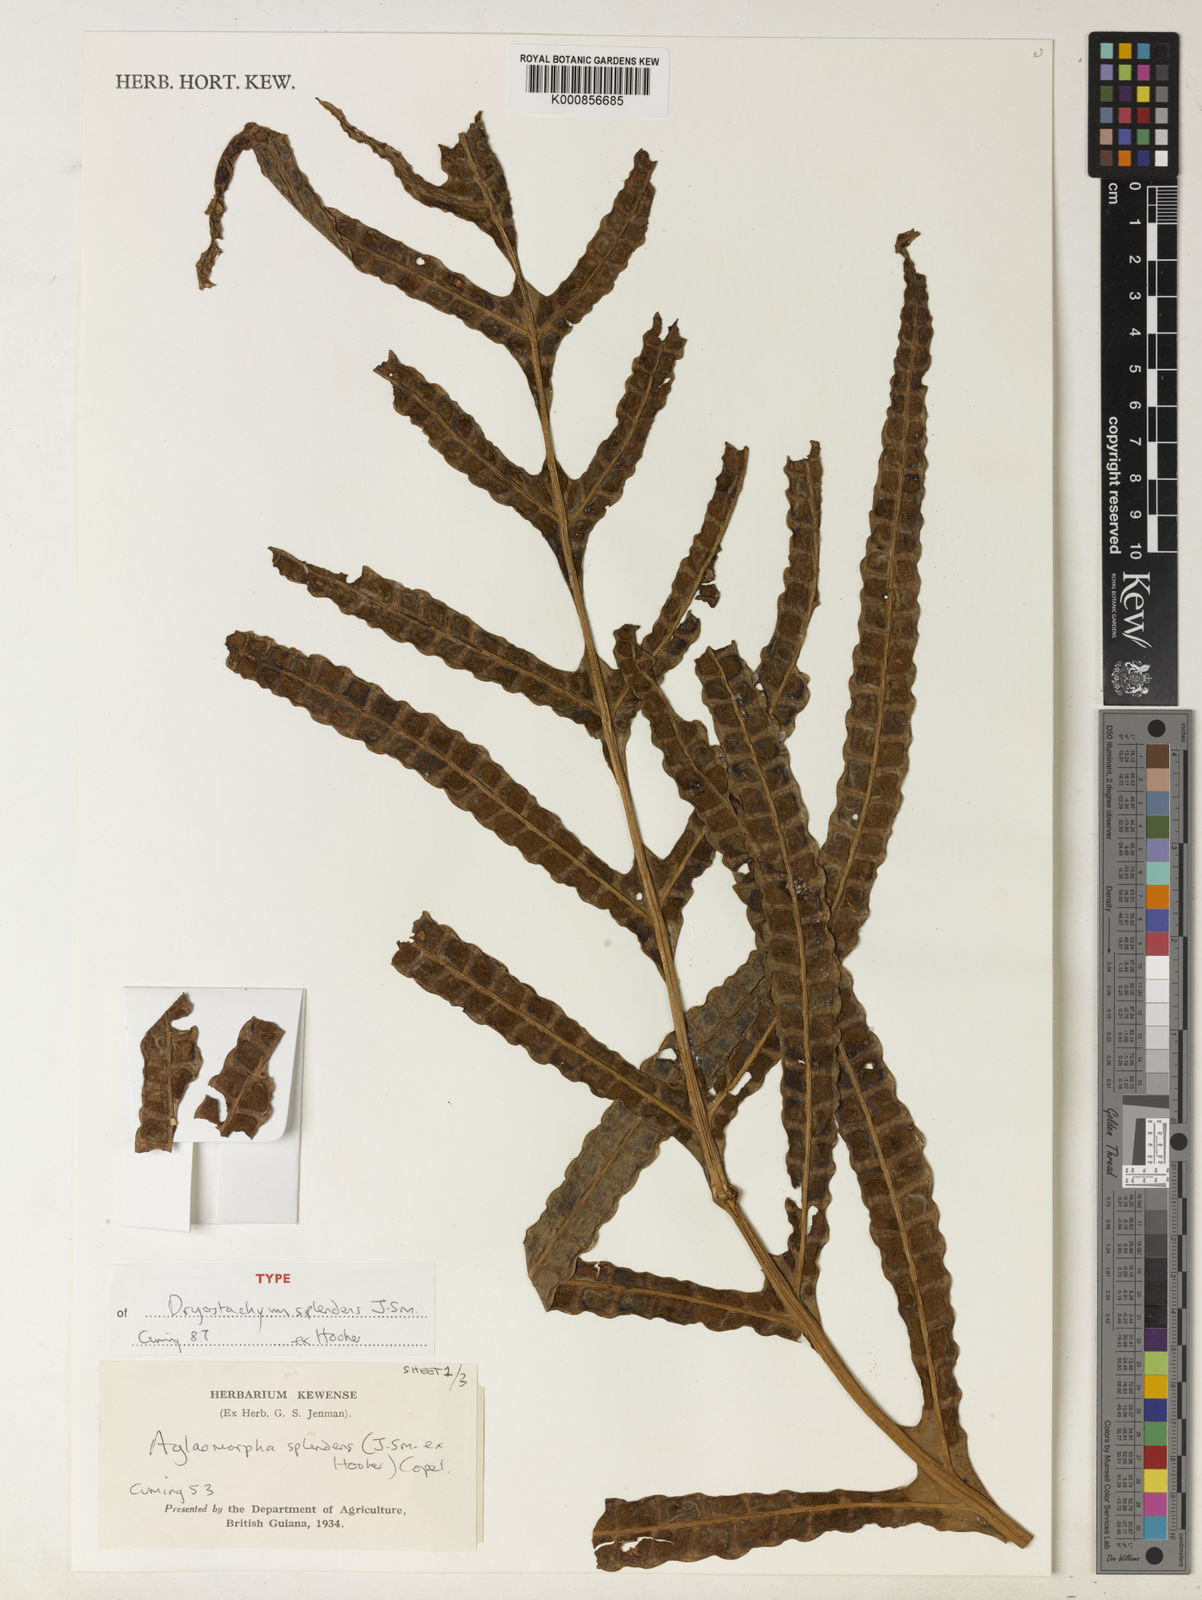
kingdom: Plantae
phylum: Tracheophyta
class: Polypodiopsida
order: Polypodiales
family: Polypodiaceae
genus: Drynaria
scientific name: Drynaria splendens
